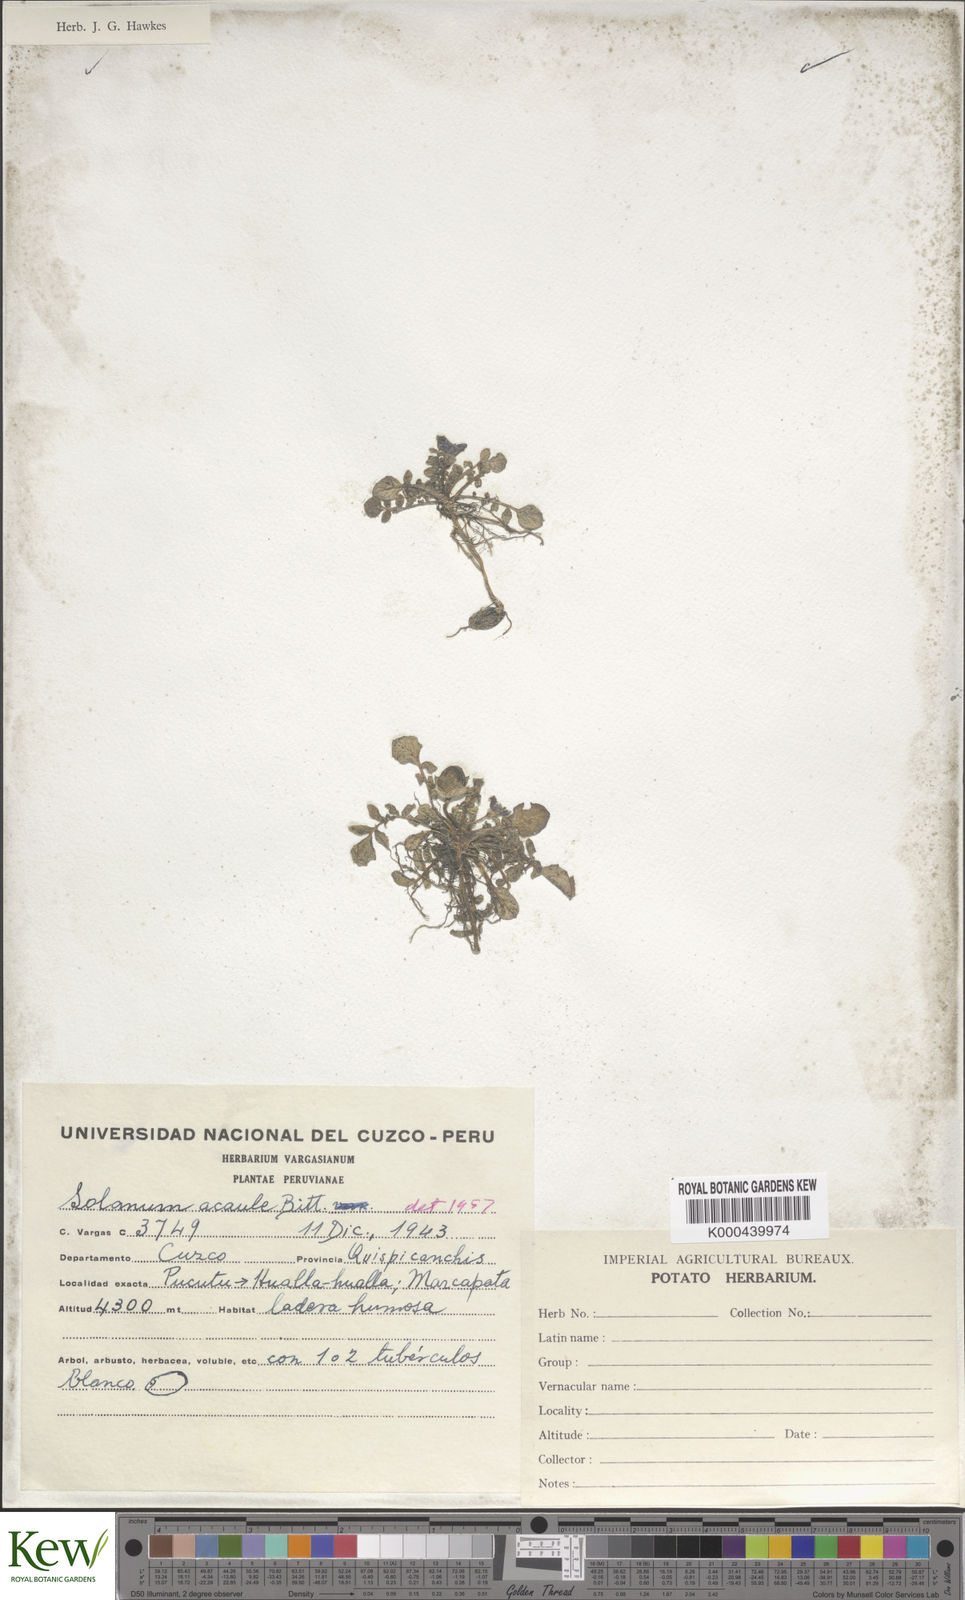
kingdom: Plantae
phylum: Tracheophyta
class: Magnoliopsida
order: Solanales
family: Solanaceae
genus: Solanum
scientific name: Solanum acaule
